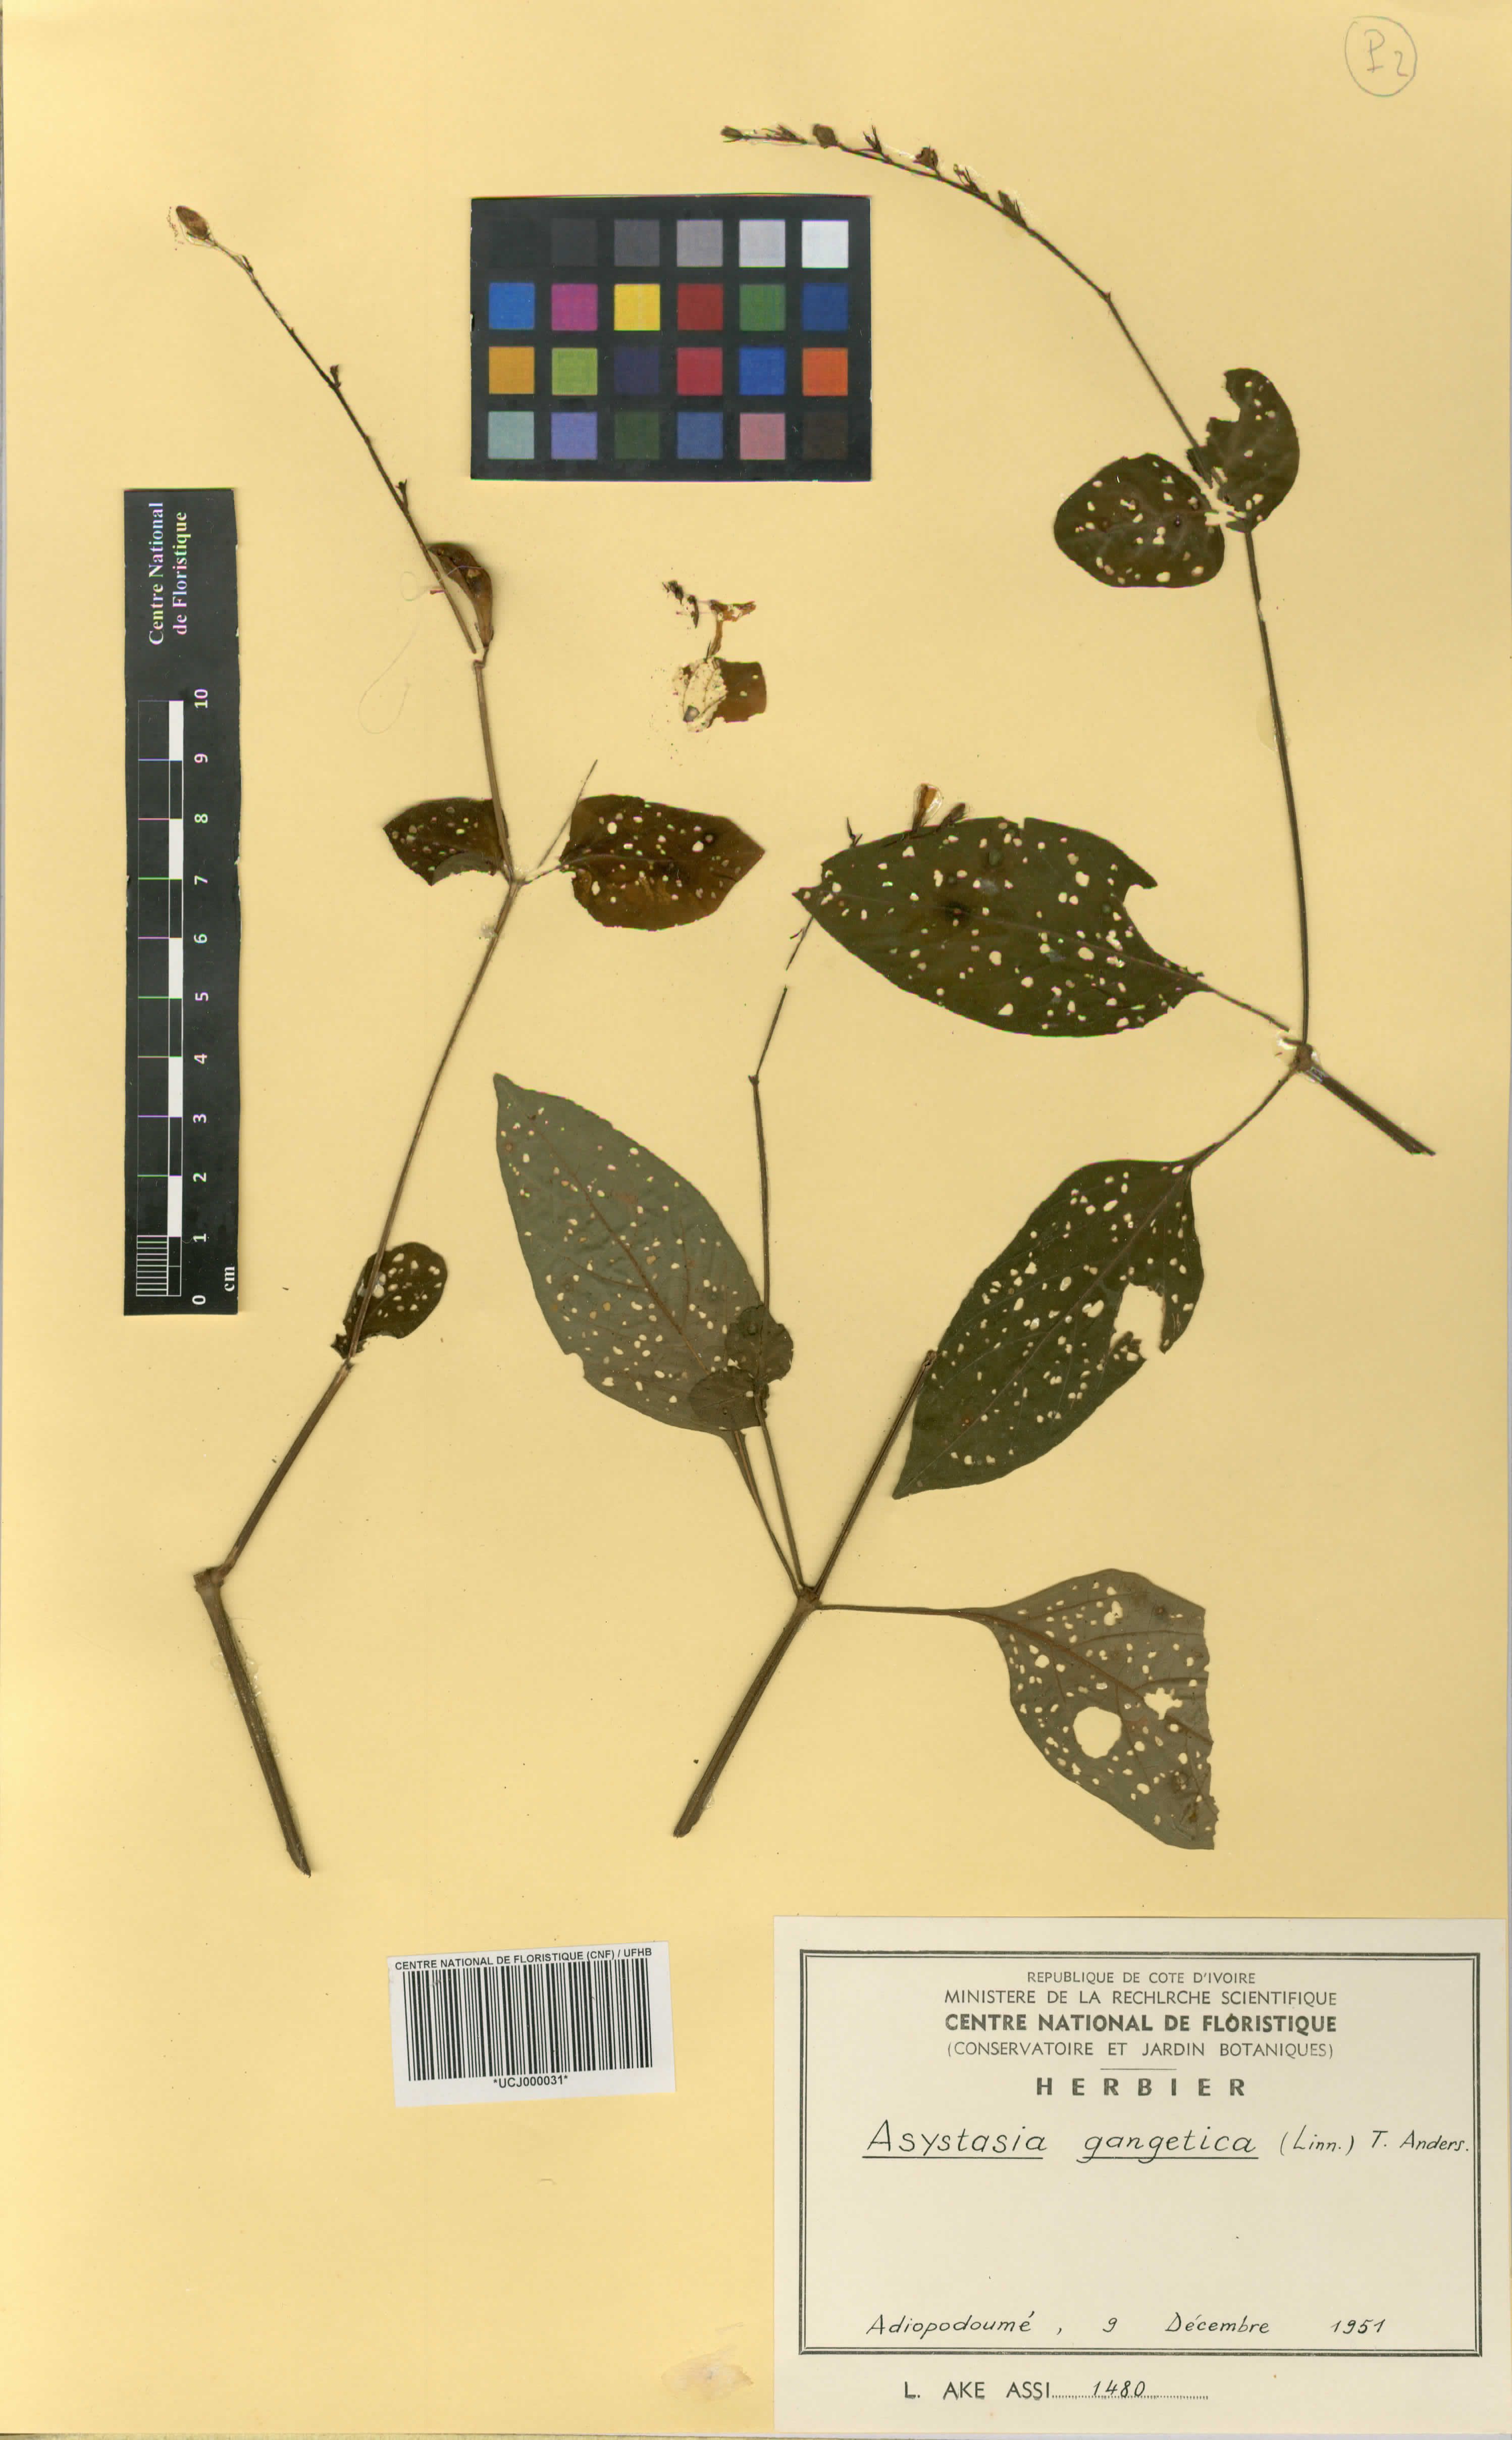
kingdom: Plantae
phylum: Tracheophyta
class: Magnoliopsida
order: Lamiales
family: Acanthaceae
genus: Asystasia
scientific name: Asystasia gangetica
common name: Chinese violet
